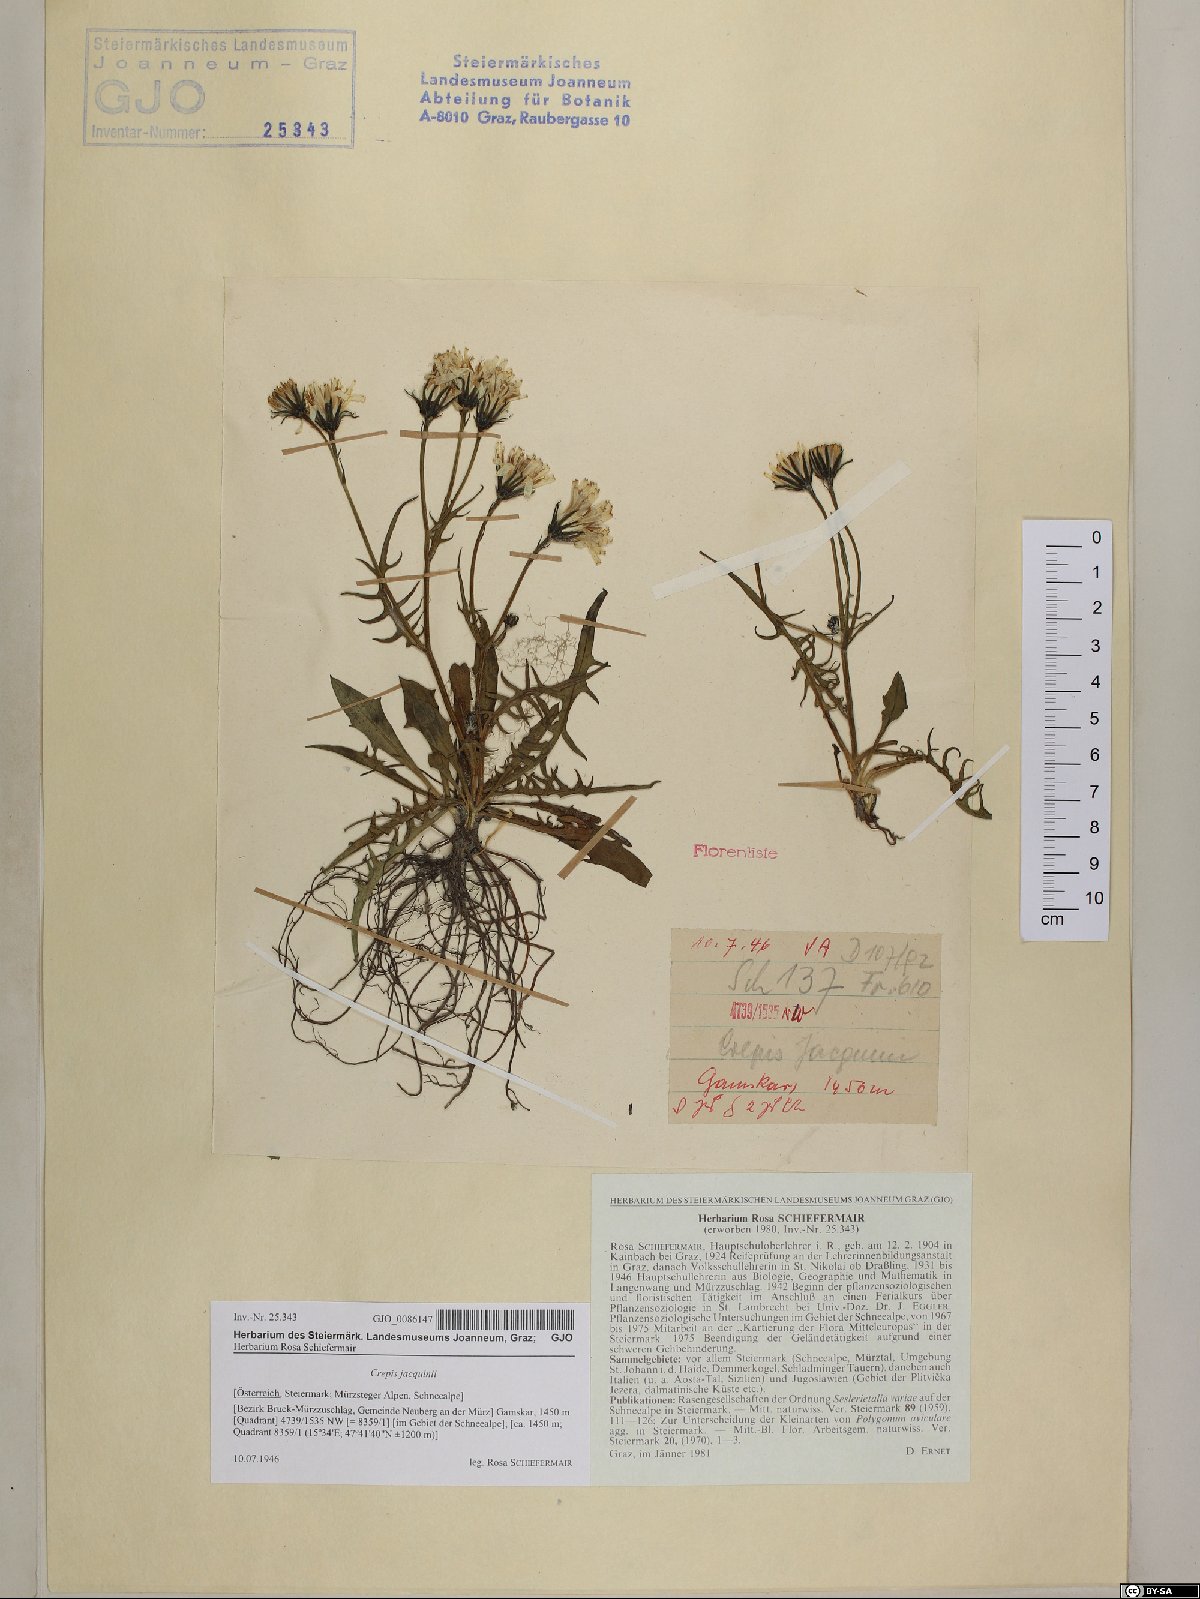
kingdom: Plantae
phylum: Tracheophyta
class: Magnoliopsida
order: Asterales
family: Asteraceae
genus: Crepis
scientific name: Crepis jacquinii
